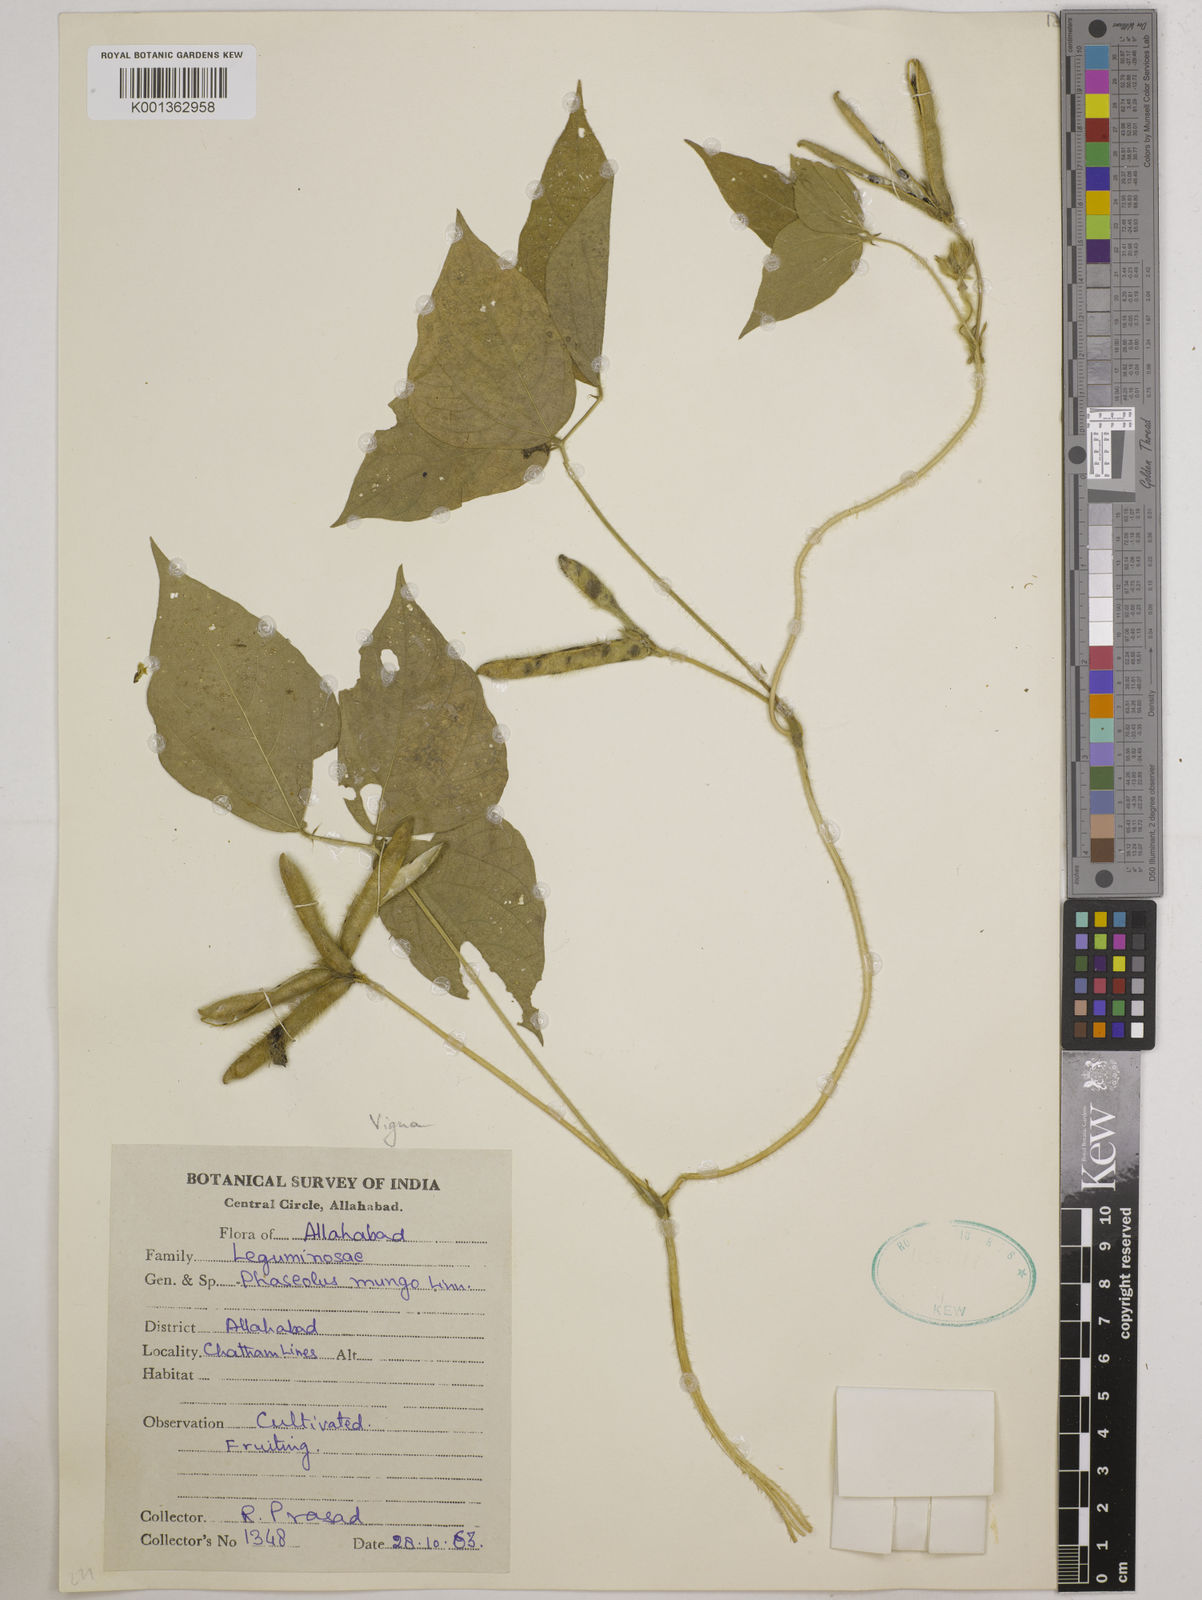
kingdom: Plantae
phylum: Tracheophyta
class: Magnoliopsida
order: Fabales
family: Fabaceae
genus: Vigna
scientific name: Vigna mungo
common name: Black gram
